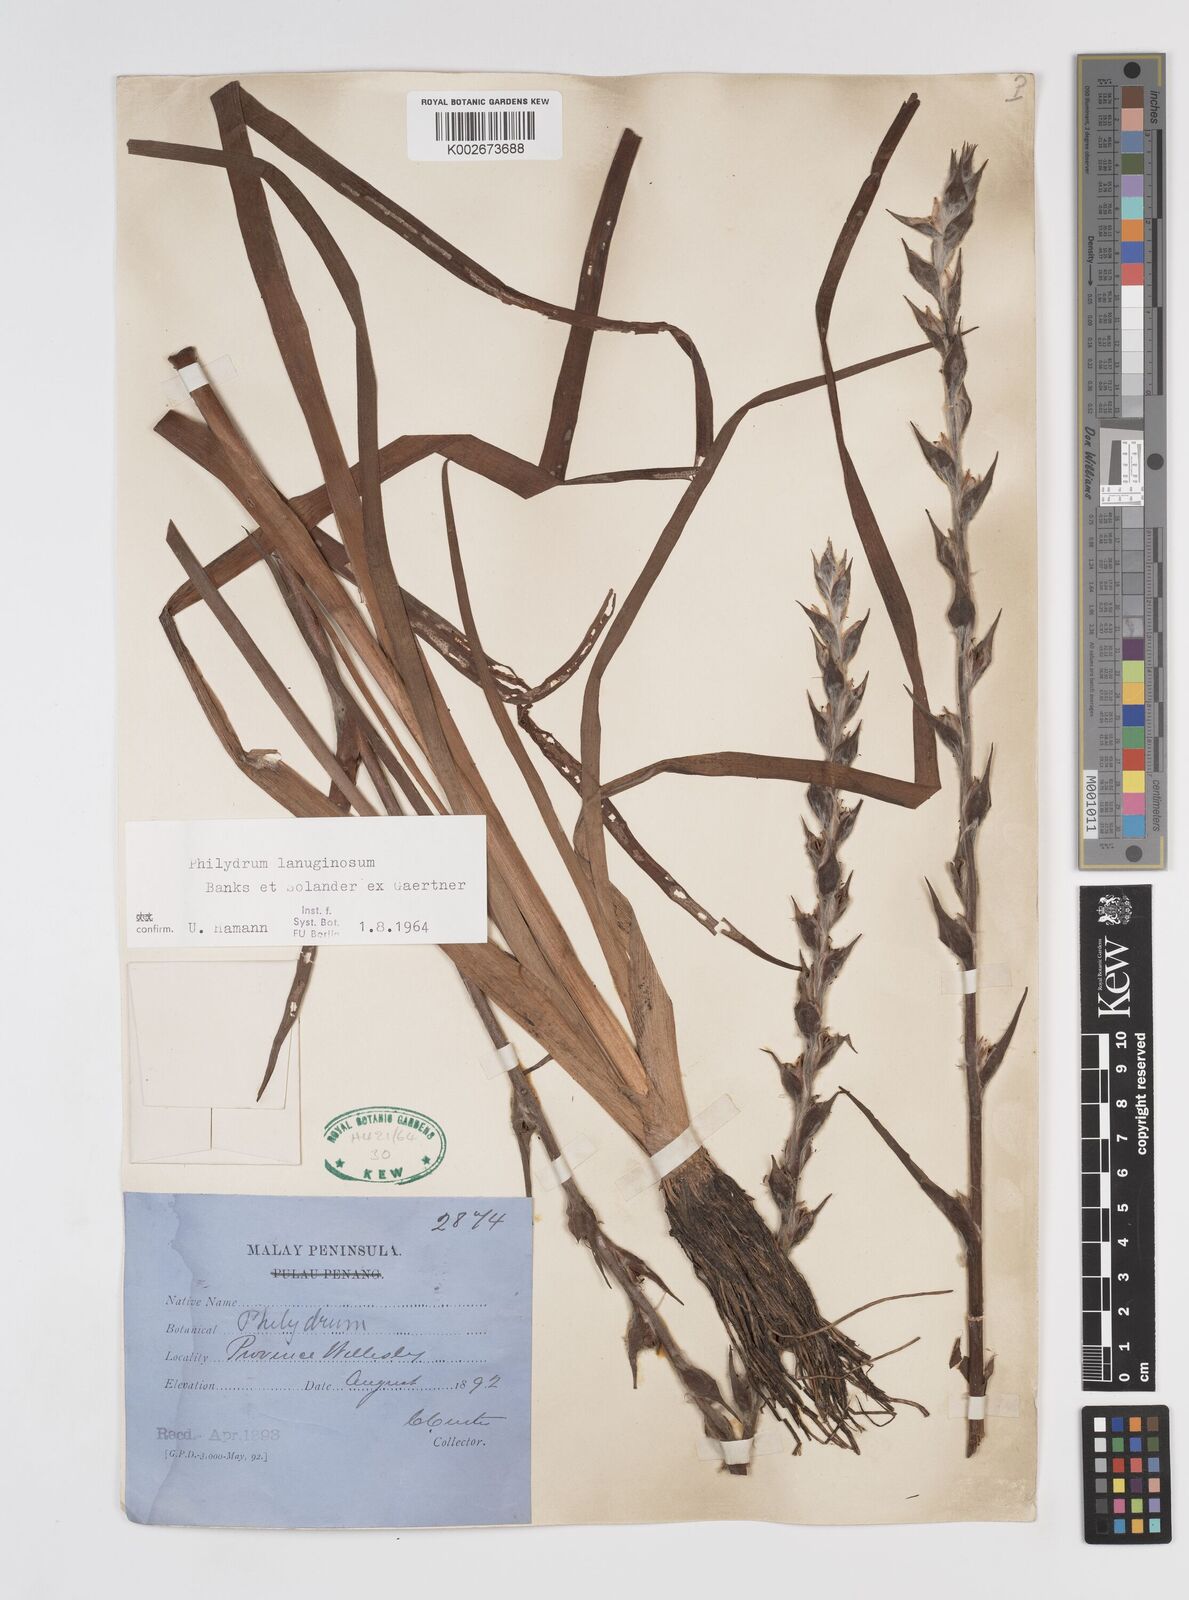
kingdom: Plantae
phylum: Tracheophyta
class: Liliopsida
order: Commelinales
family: Philydraceae
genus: Philydrum
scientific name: Philydrum lanuginosum
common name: Woolly frog's mouth
